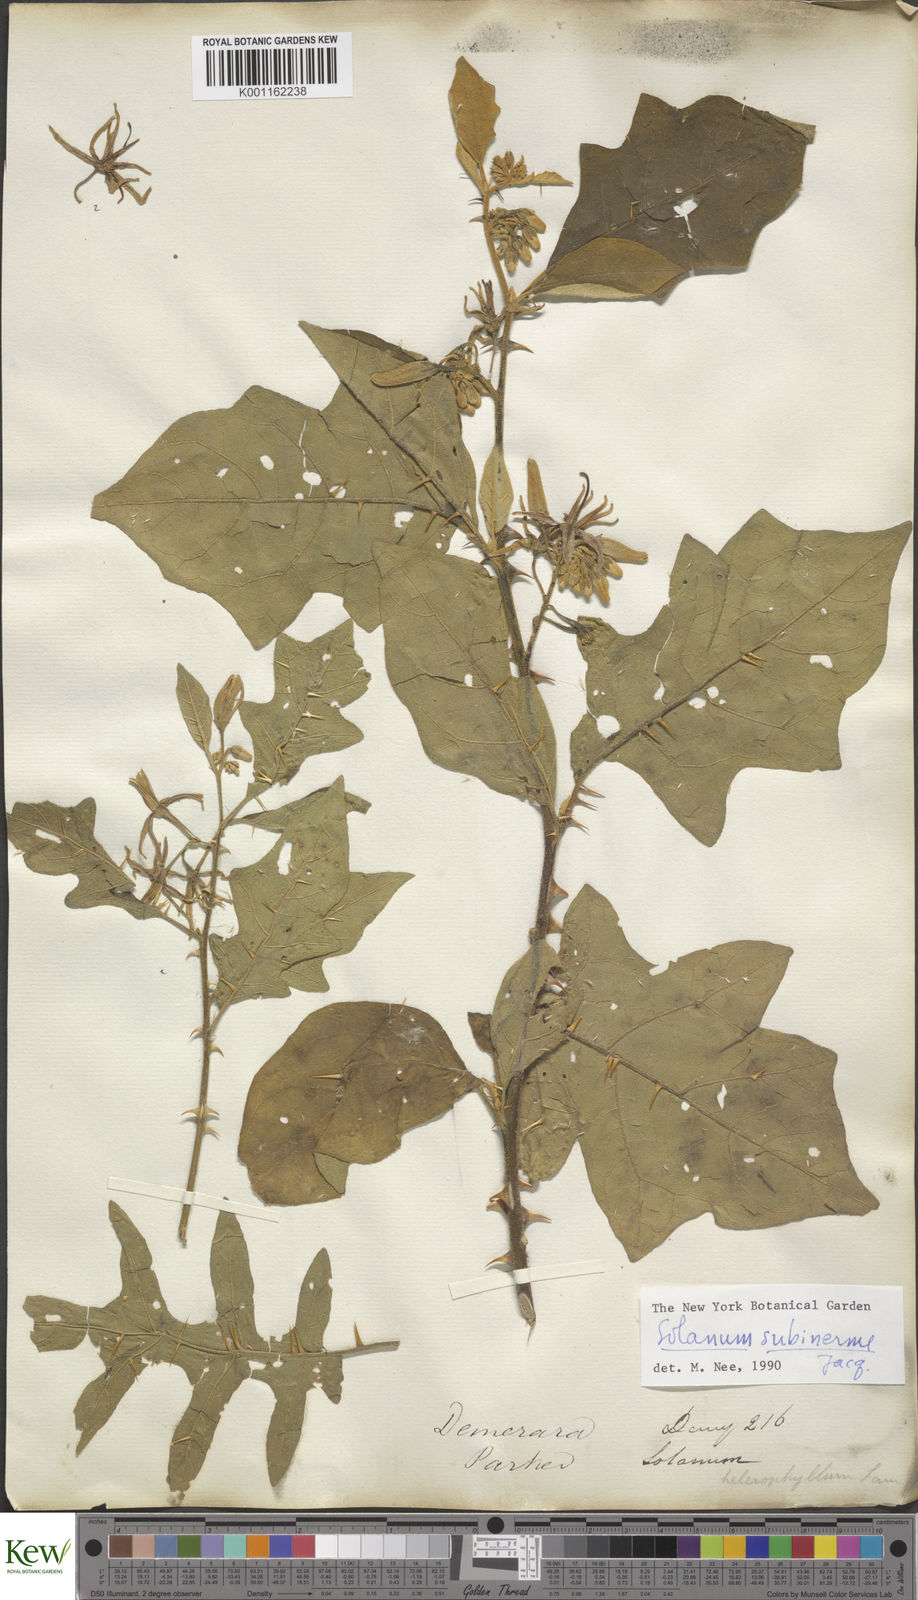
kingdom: Plantae
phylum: Tracheophyta
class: Magnoliopsida
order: Solanales
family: Solanaceae
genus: Solanum
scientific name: Solanum subinerme
